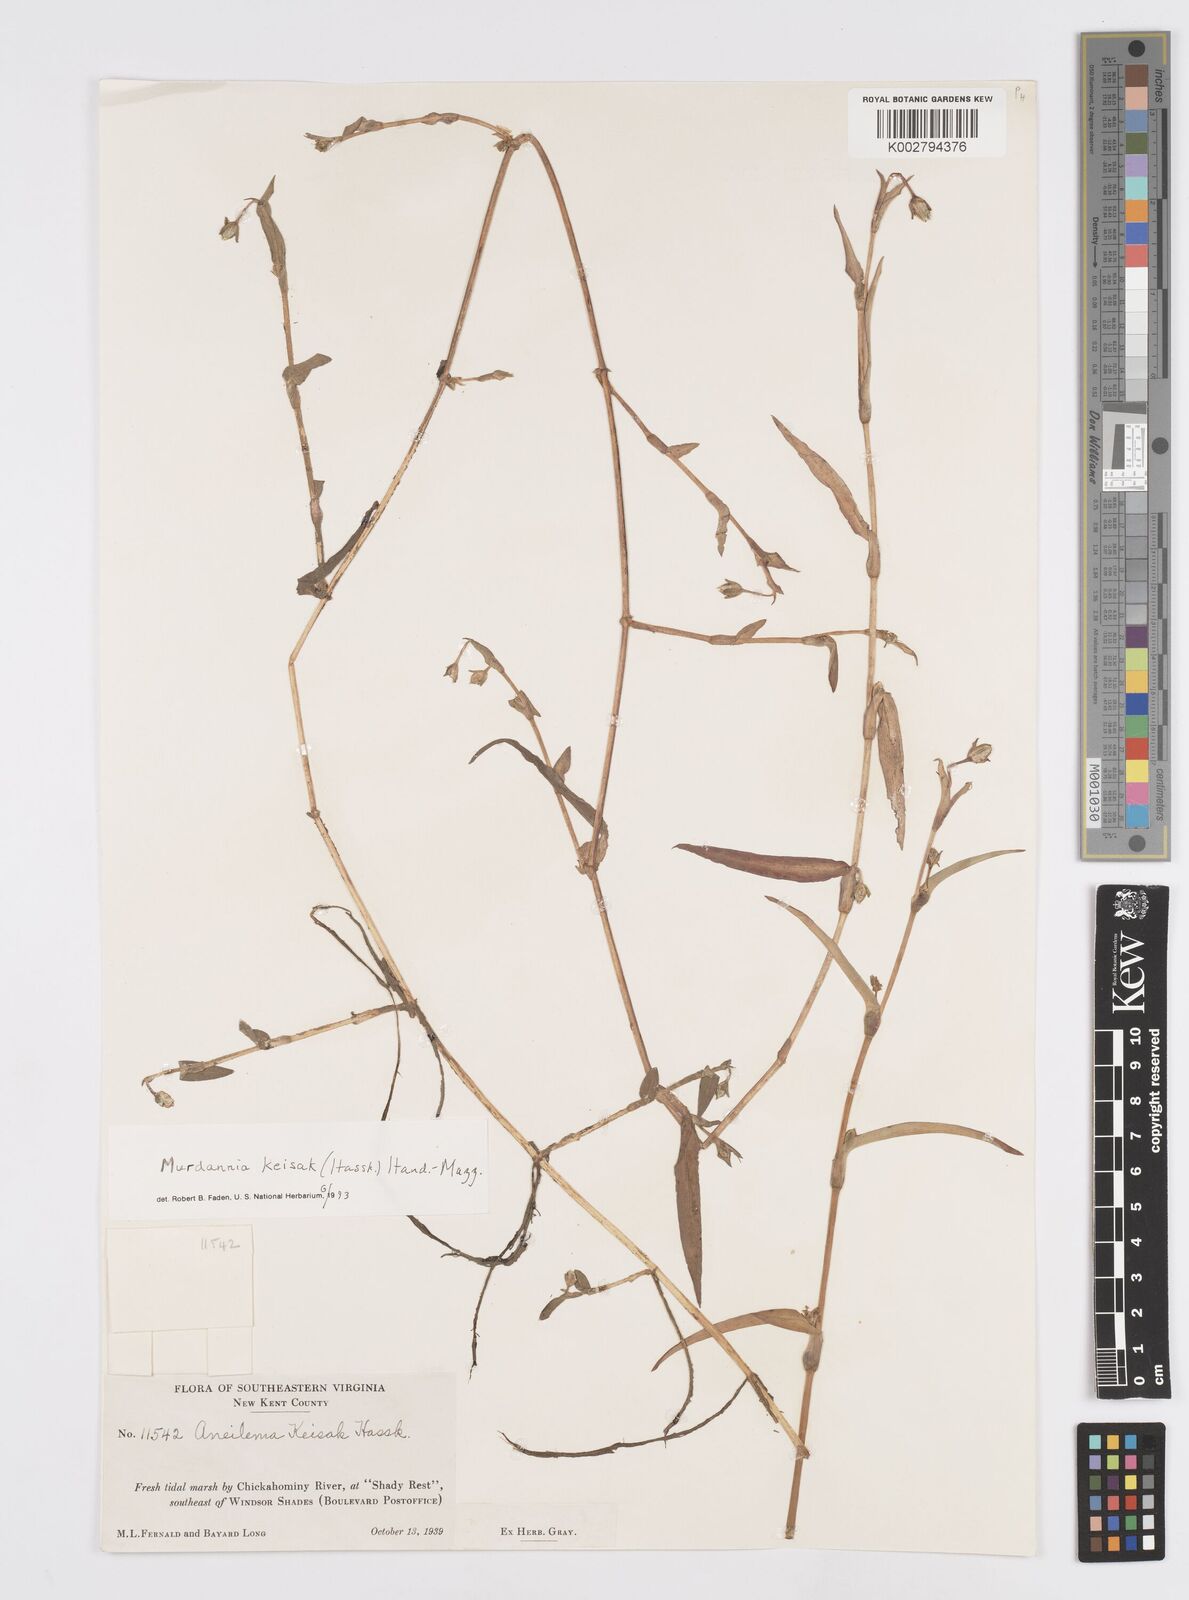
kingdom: Plantae
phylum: Tracheophyta
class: Liliopsida
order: Commelinales
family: Commelinaceae
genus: Murdannia
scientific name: Murdannia keisak
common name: Wartremoving herb
